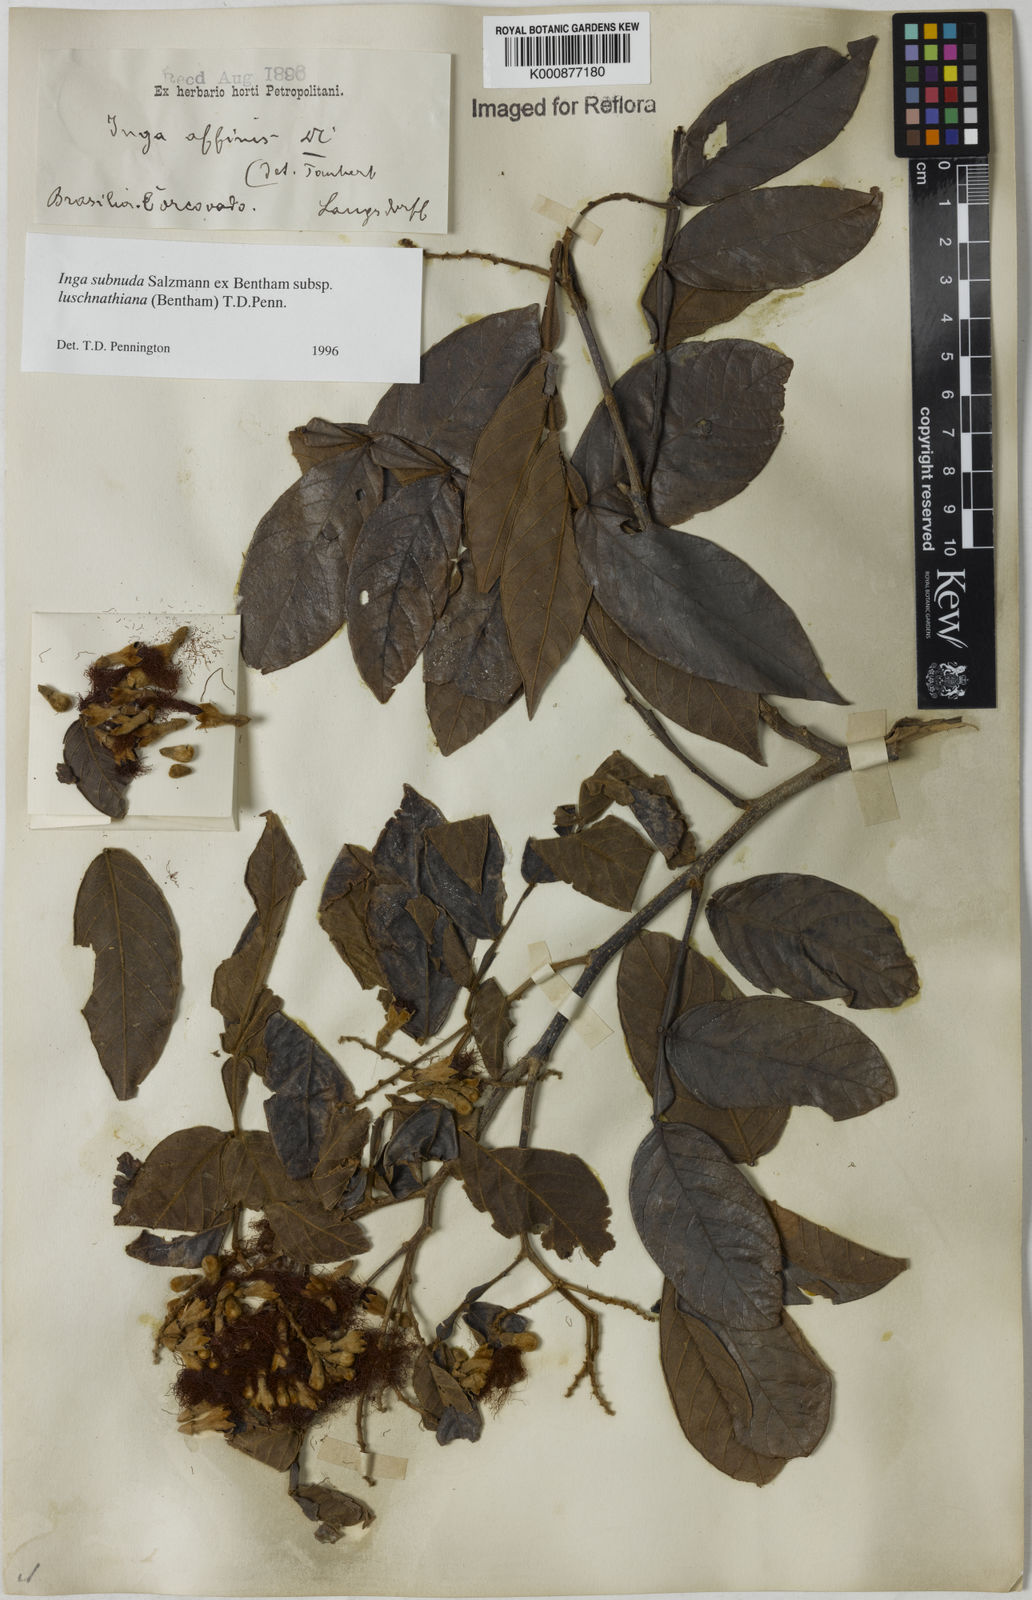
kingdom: Plantae
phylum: Tracheophyta
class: Magnoliopsida
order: Fabales
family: Fabaceae
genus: Inga
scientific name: Inga subnuda
